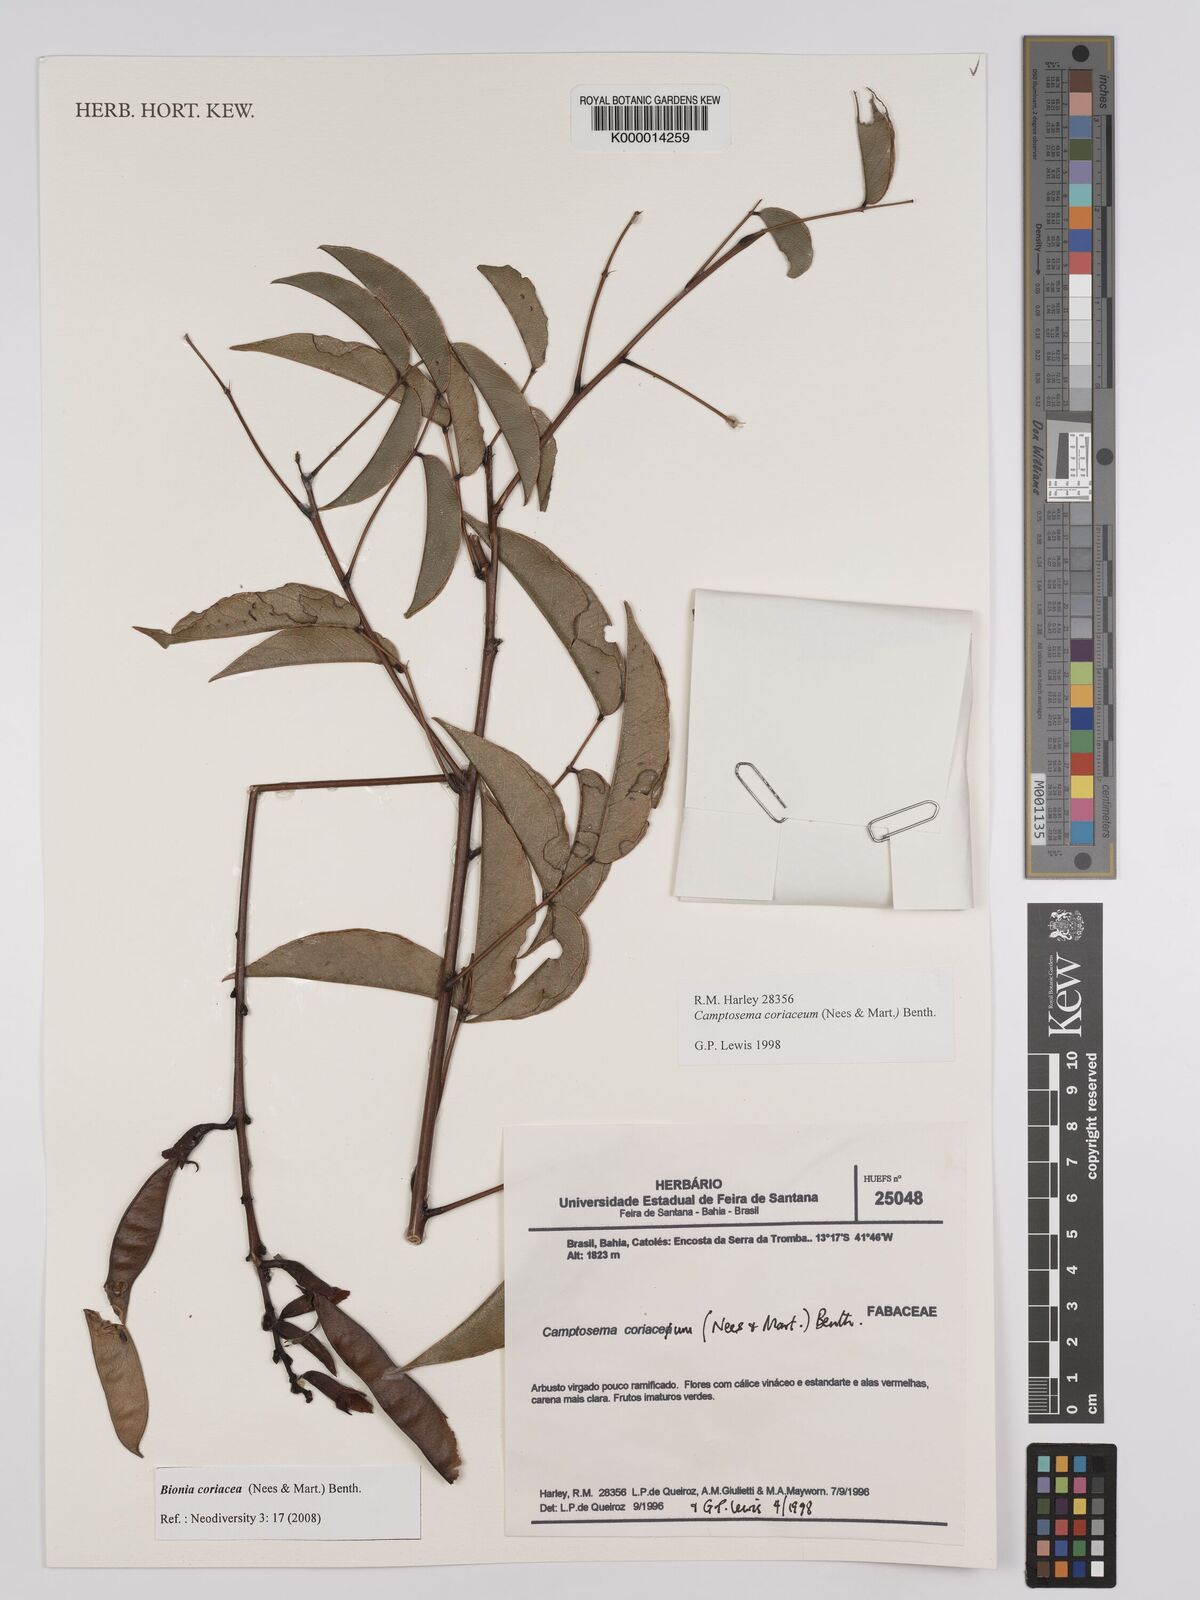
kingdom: Plantae
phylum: Tracheophyta
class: Magnoliopsida
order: Fabales
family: Fabaceae
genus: Camptosema
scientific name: Camptosema coriaceum
